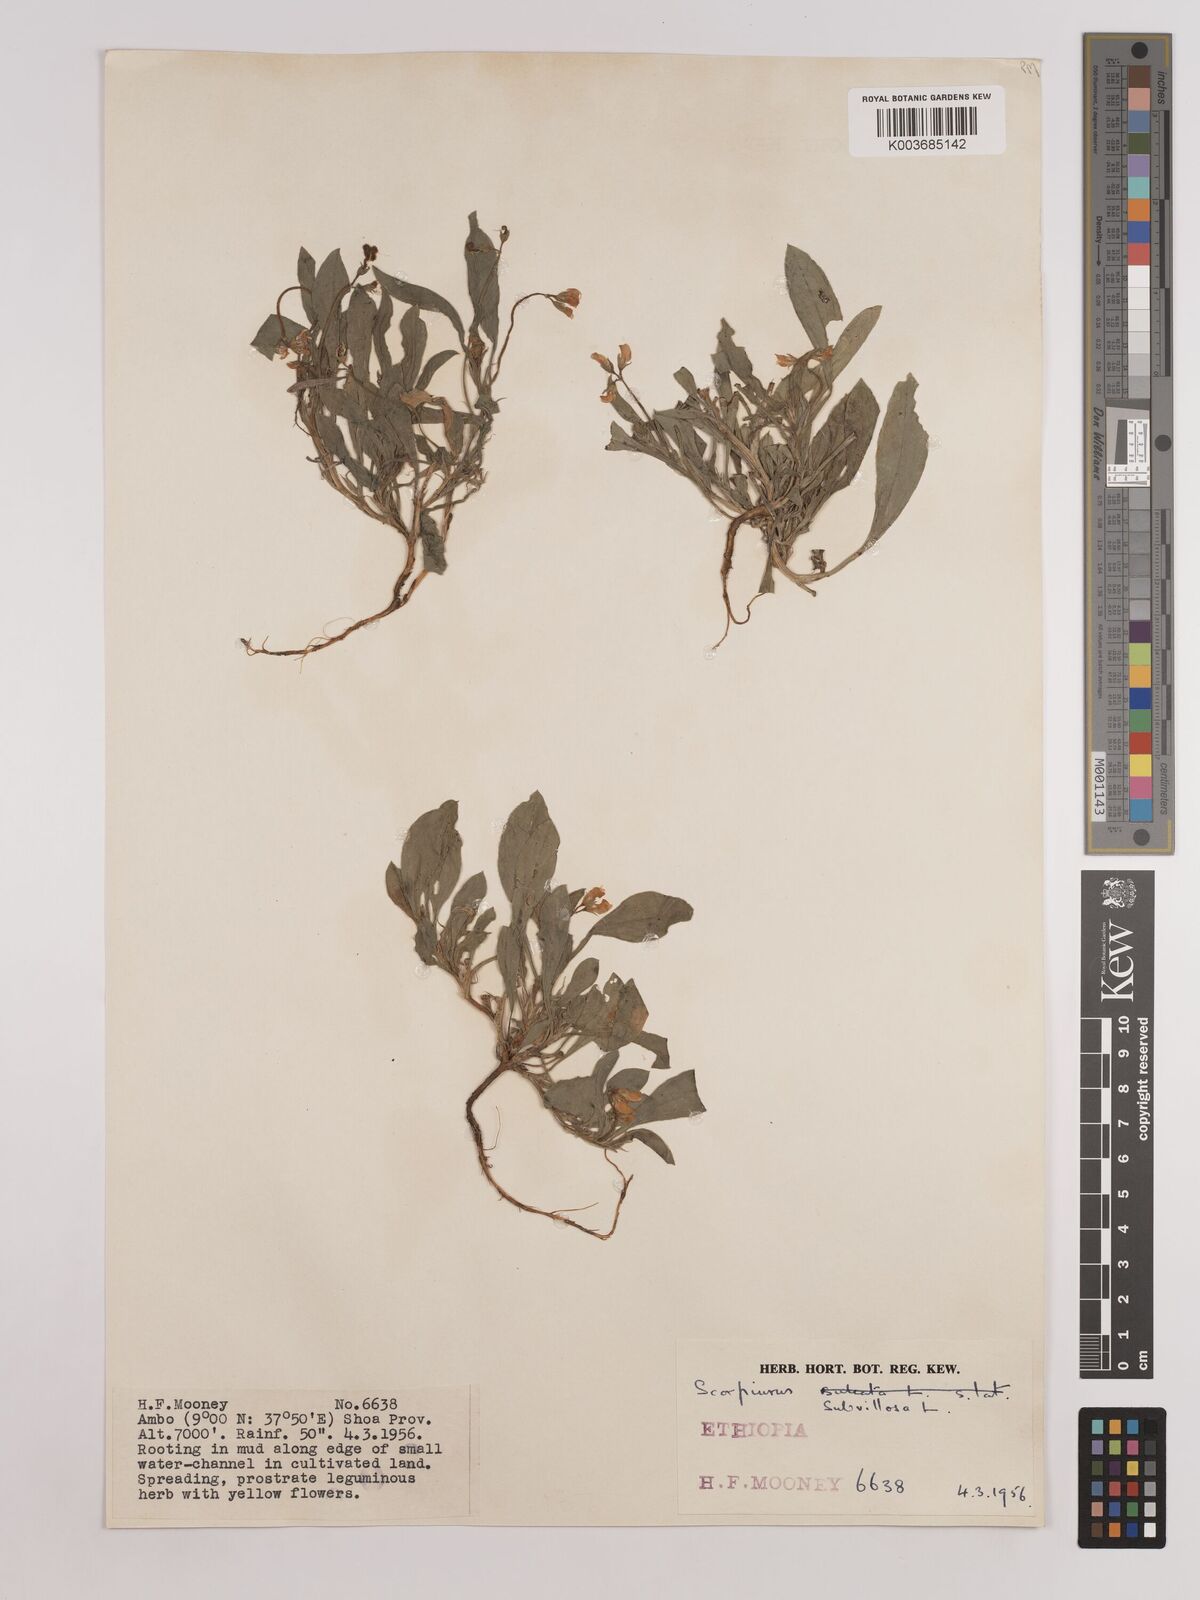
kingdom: Plantae
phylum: Tracheophyta
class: Magnoliopsida
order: Fabales
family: Fabaceae
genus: Scorpiurus
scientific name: Scorpiurus muricatus
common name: Caterpillar-plant
